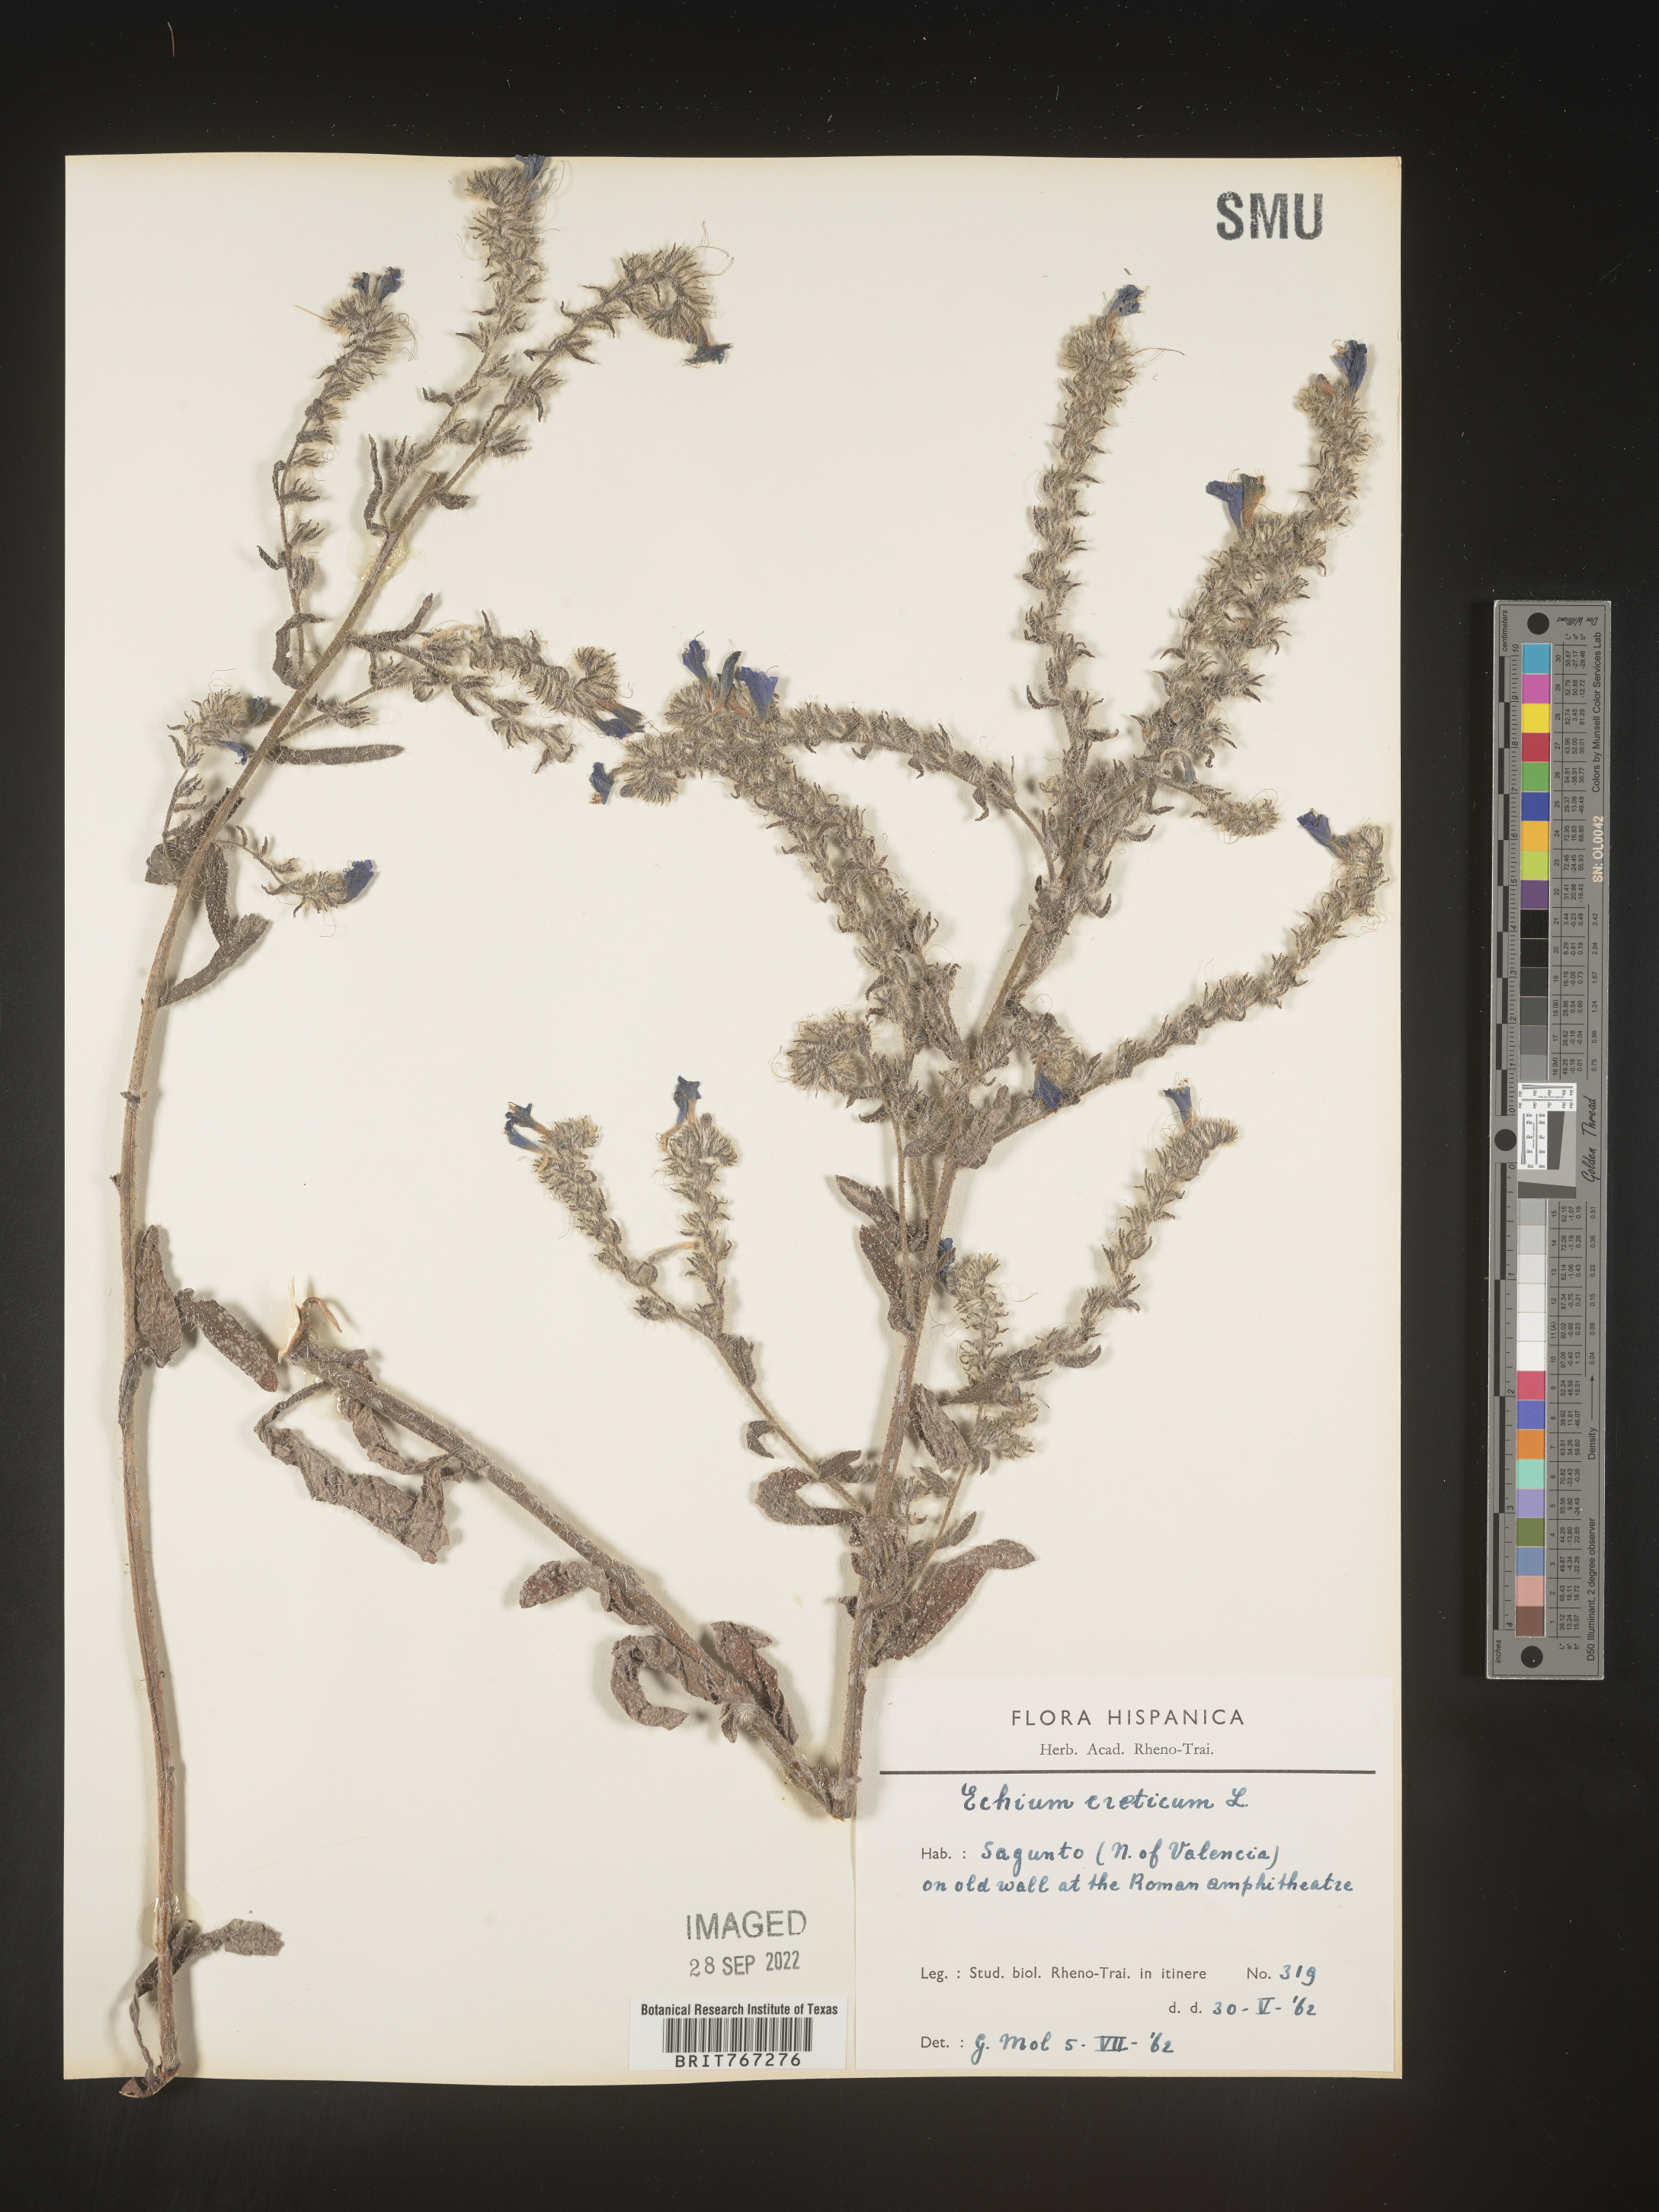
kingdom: Plantae
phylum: Tracheophyta
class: Magnoliopsida
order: Boraginales
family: Boraginaceae
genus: Echium
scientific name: Echium
